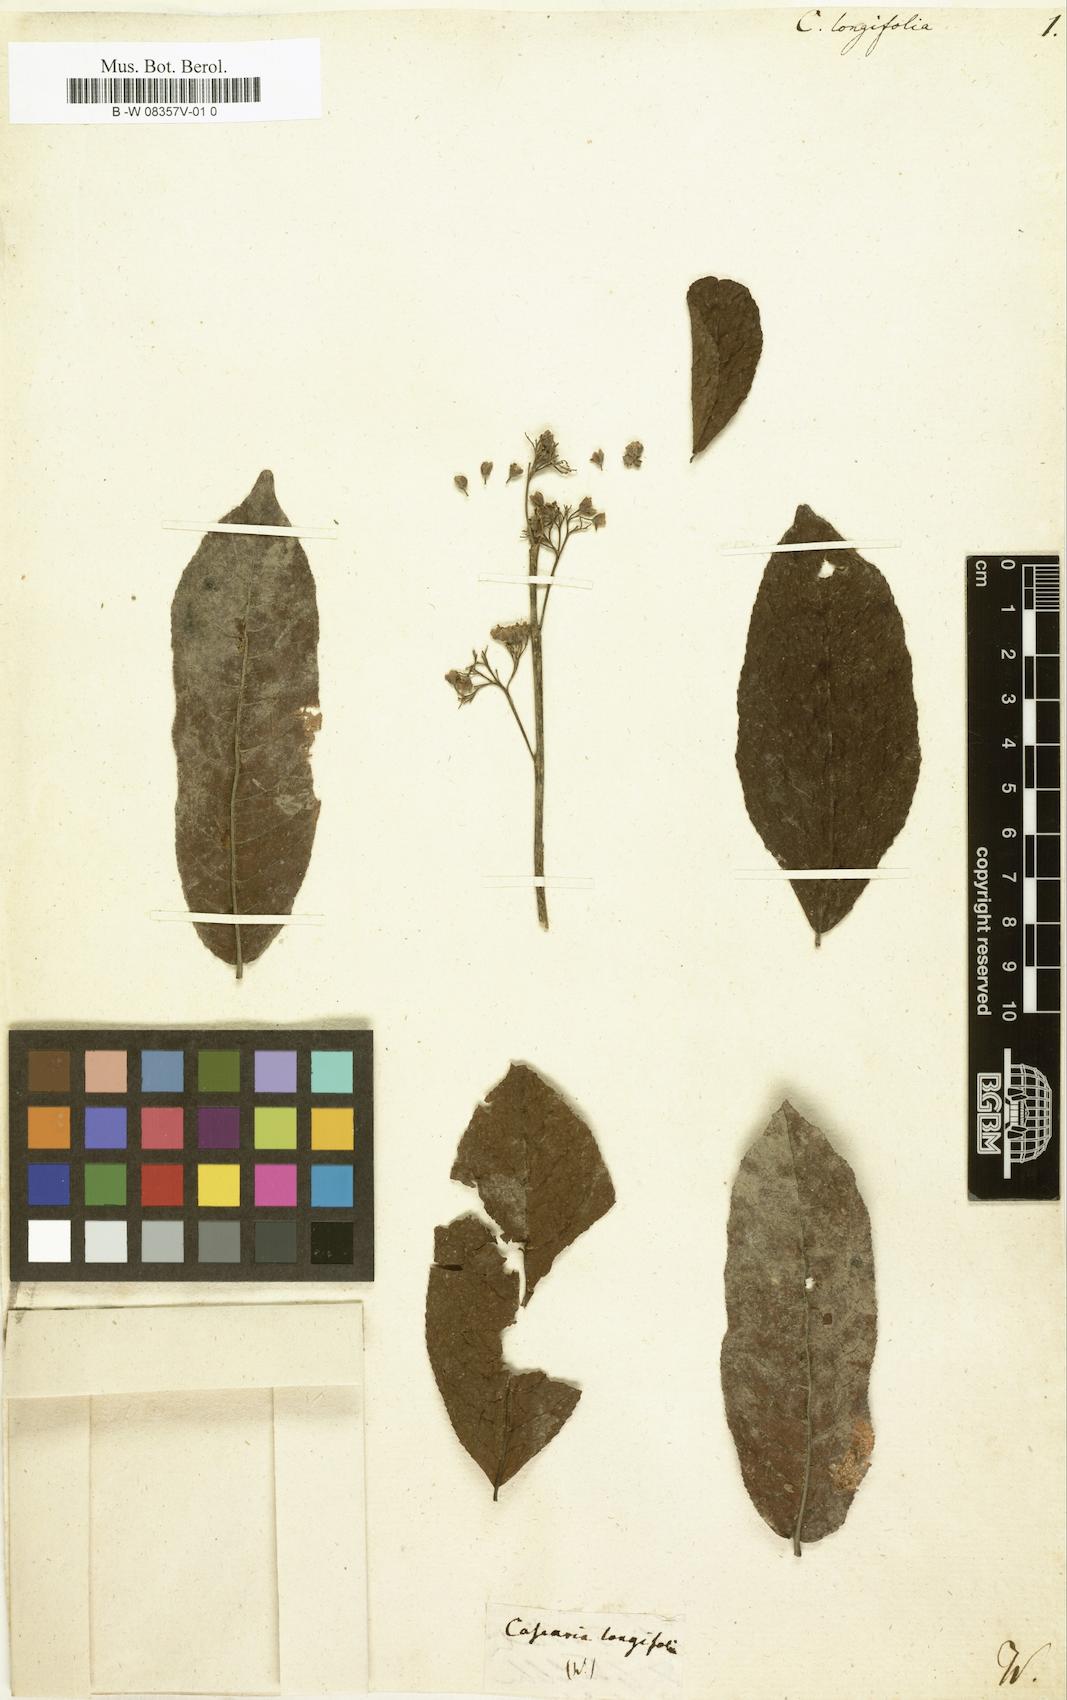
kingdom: Plantae
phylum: Tracheophyta
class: Magnoliopsida
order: Malpighiales
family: Salicaceae
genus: Casearia
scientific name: Casearia longifolia
